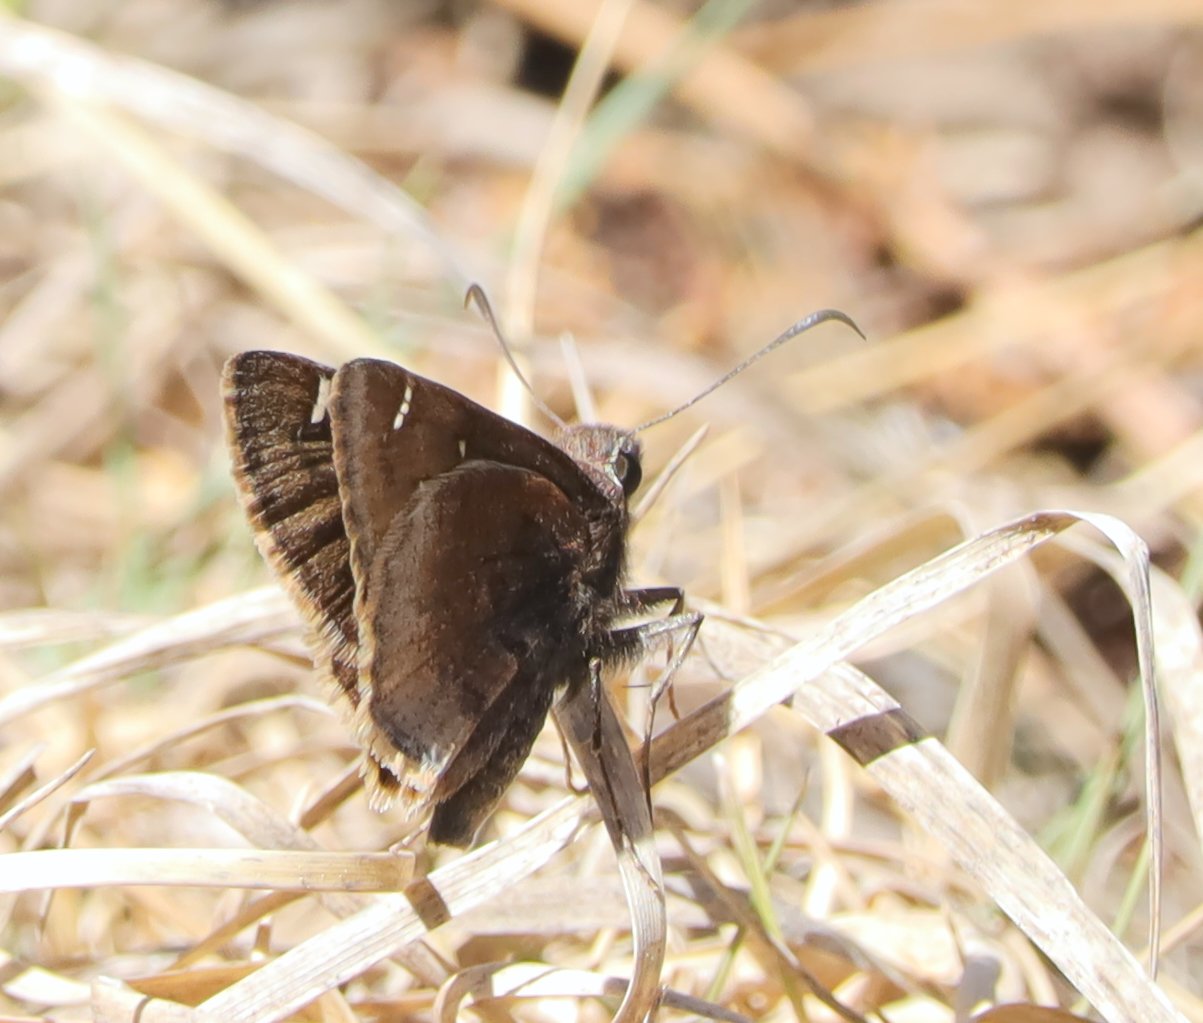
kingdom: Animalia
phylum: Arthropoda
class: Insecta
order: Lepidoptera
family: Hesperiidae
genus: Thorybes
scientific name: Thorybes mexicana
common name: Mexican Cloudywing
